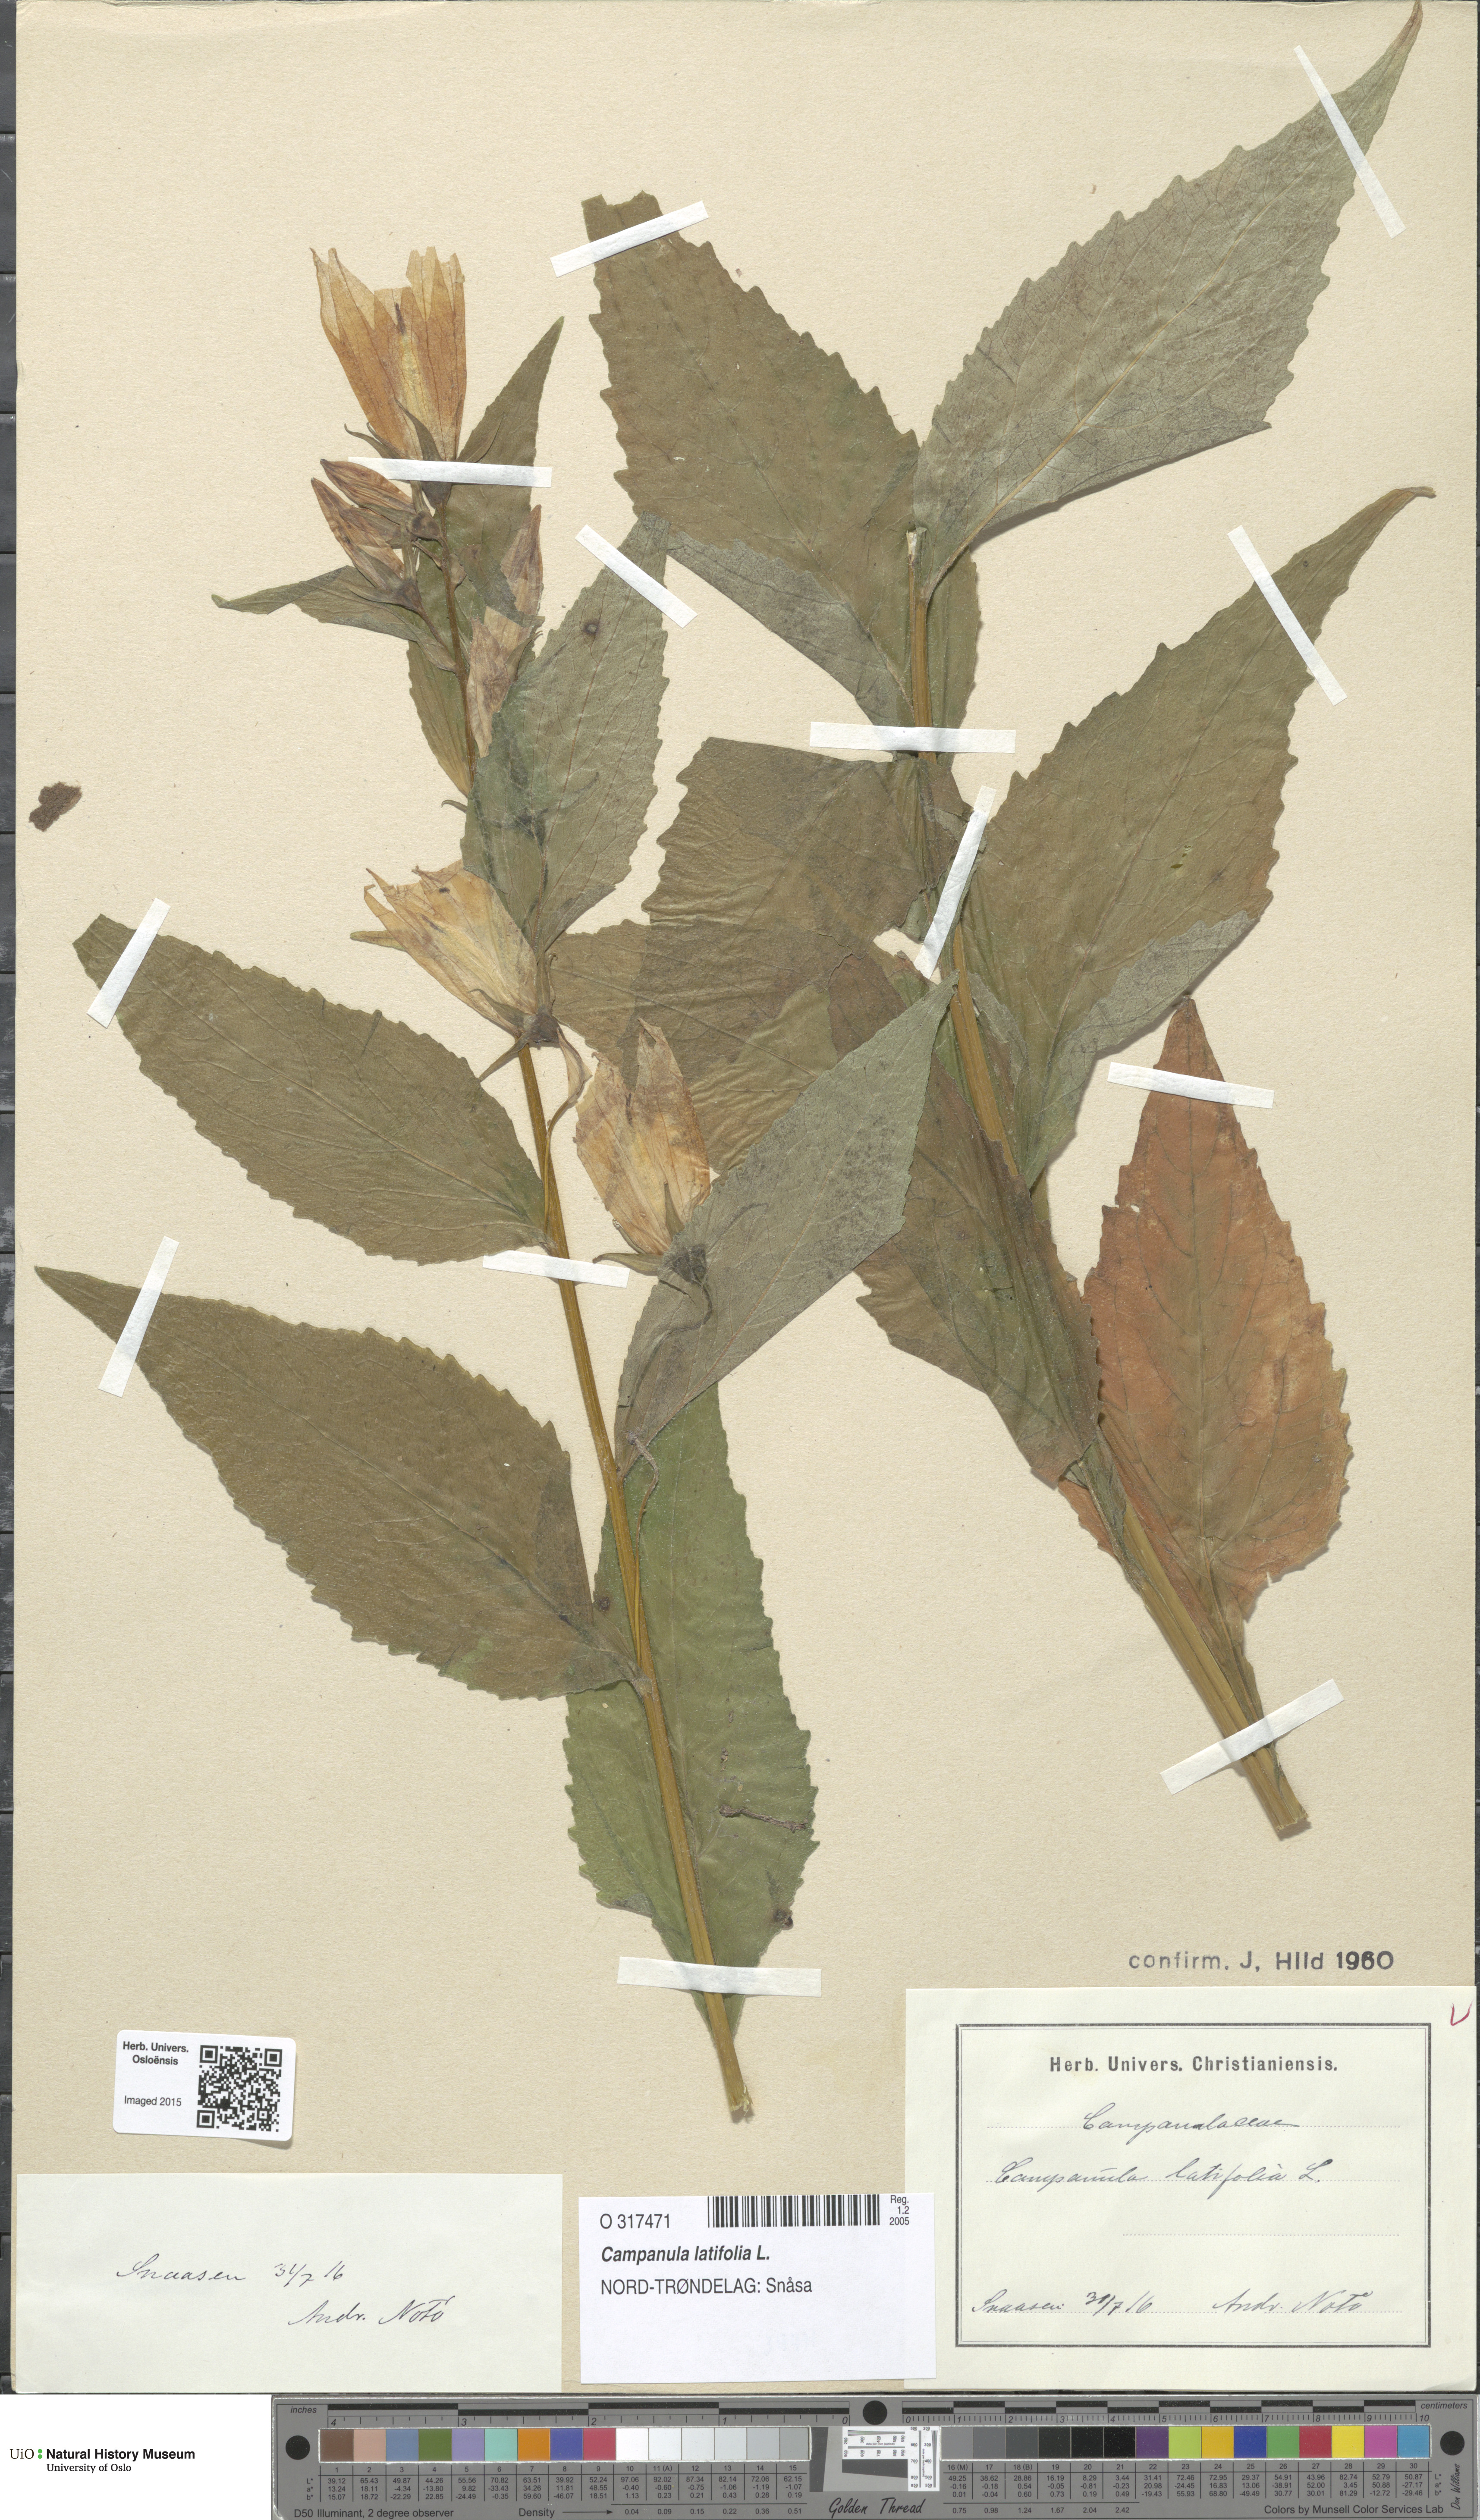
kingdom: Plantae
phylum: Tracheophyta
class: Magnoliopsida
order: Asterales
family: Campanulaceae
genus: Campanula
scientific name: Campanula latifolia
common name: Giant bellflower
